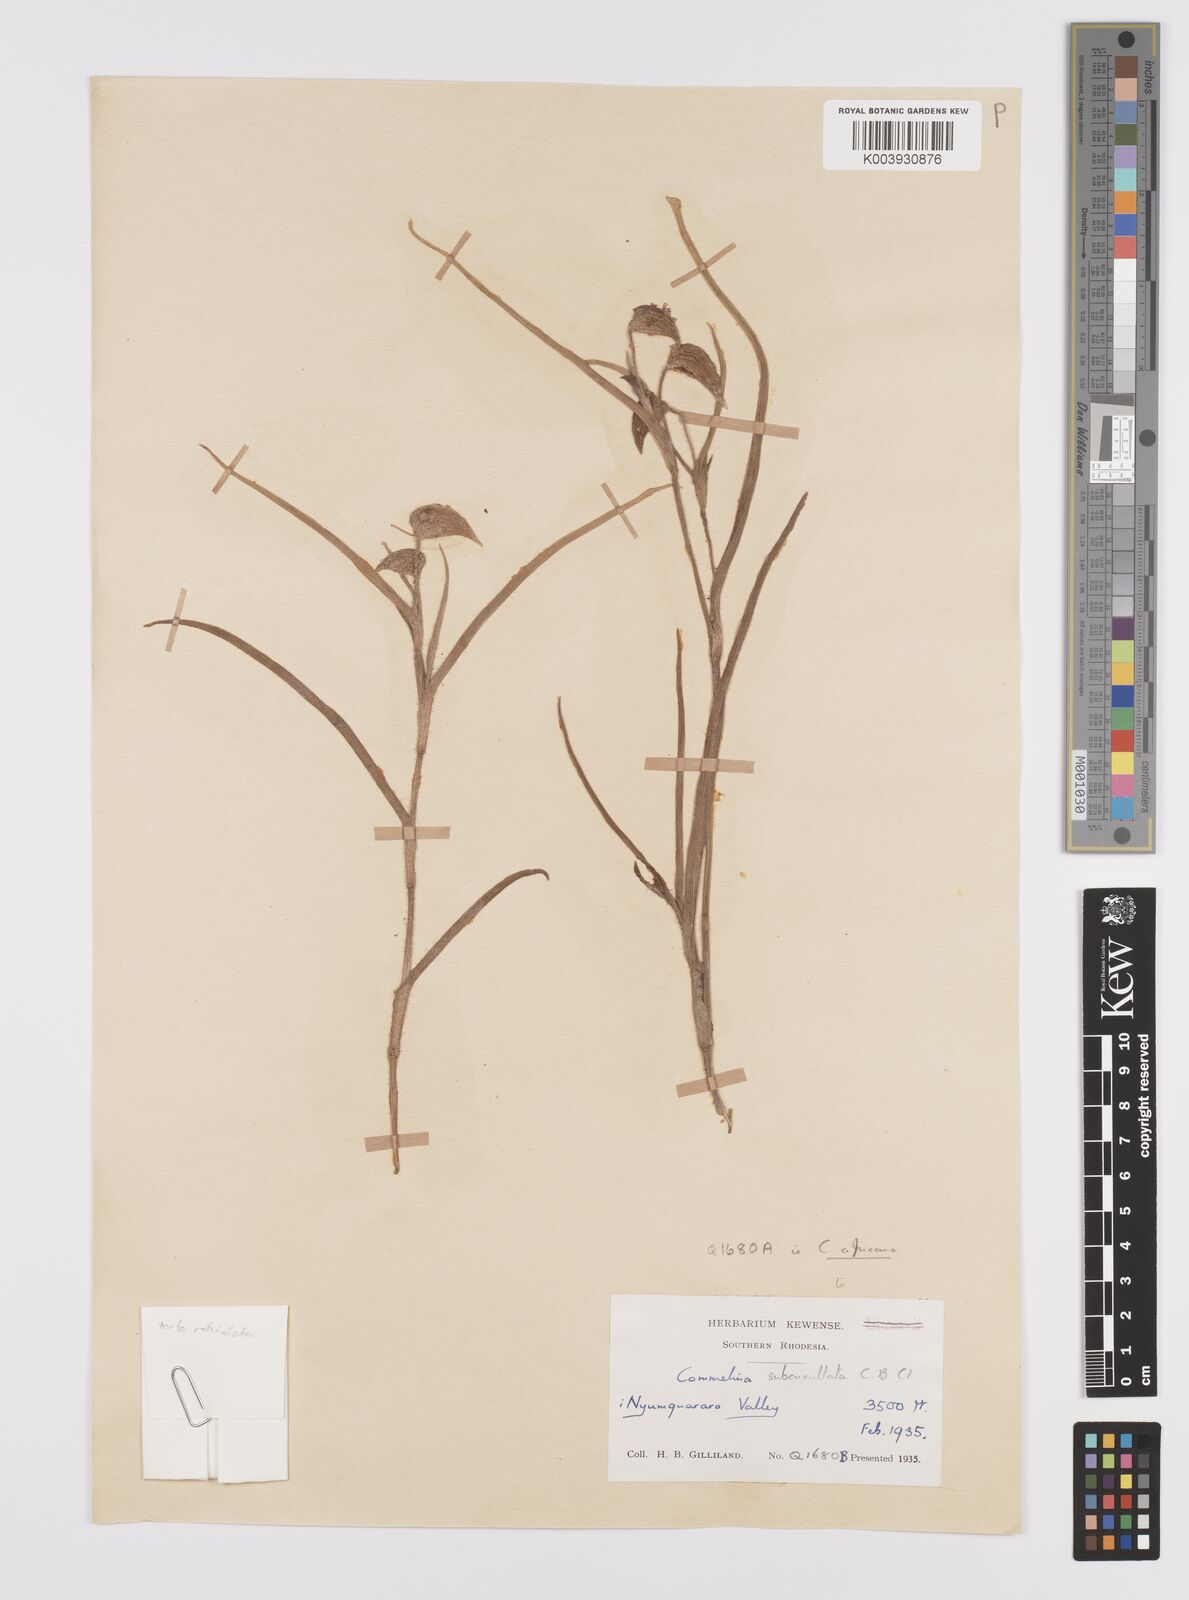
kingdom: Plantae
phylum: Tracheophyta
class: Liliopsida
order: Commelinales
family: Commelinaceae
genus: Commelina
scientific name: Commelina subcucullata
